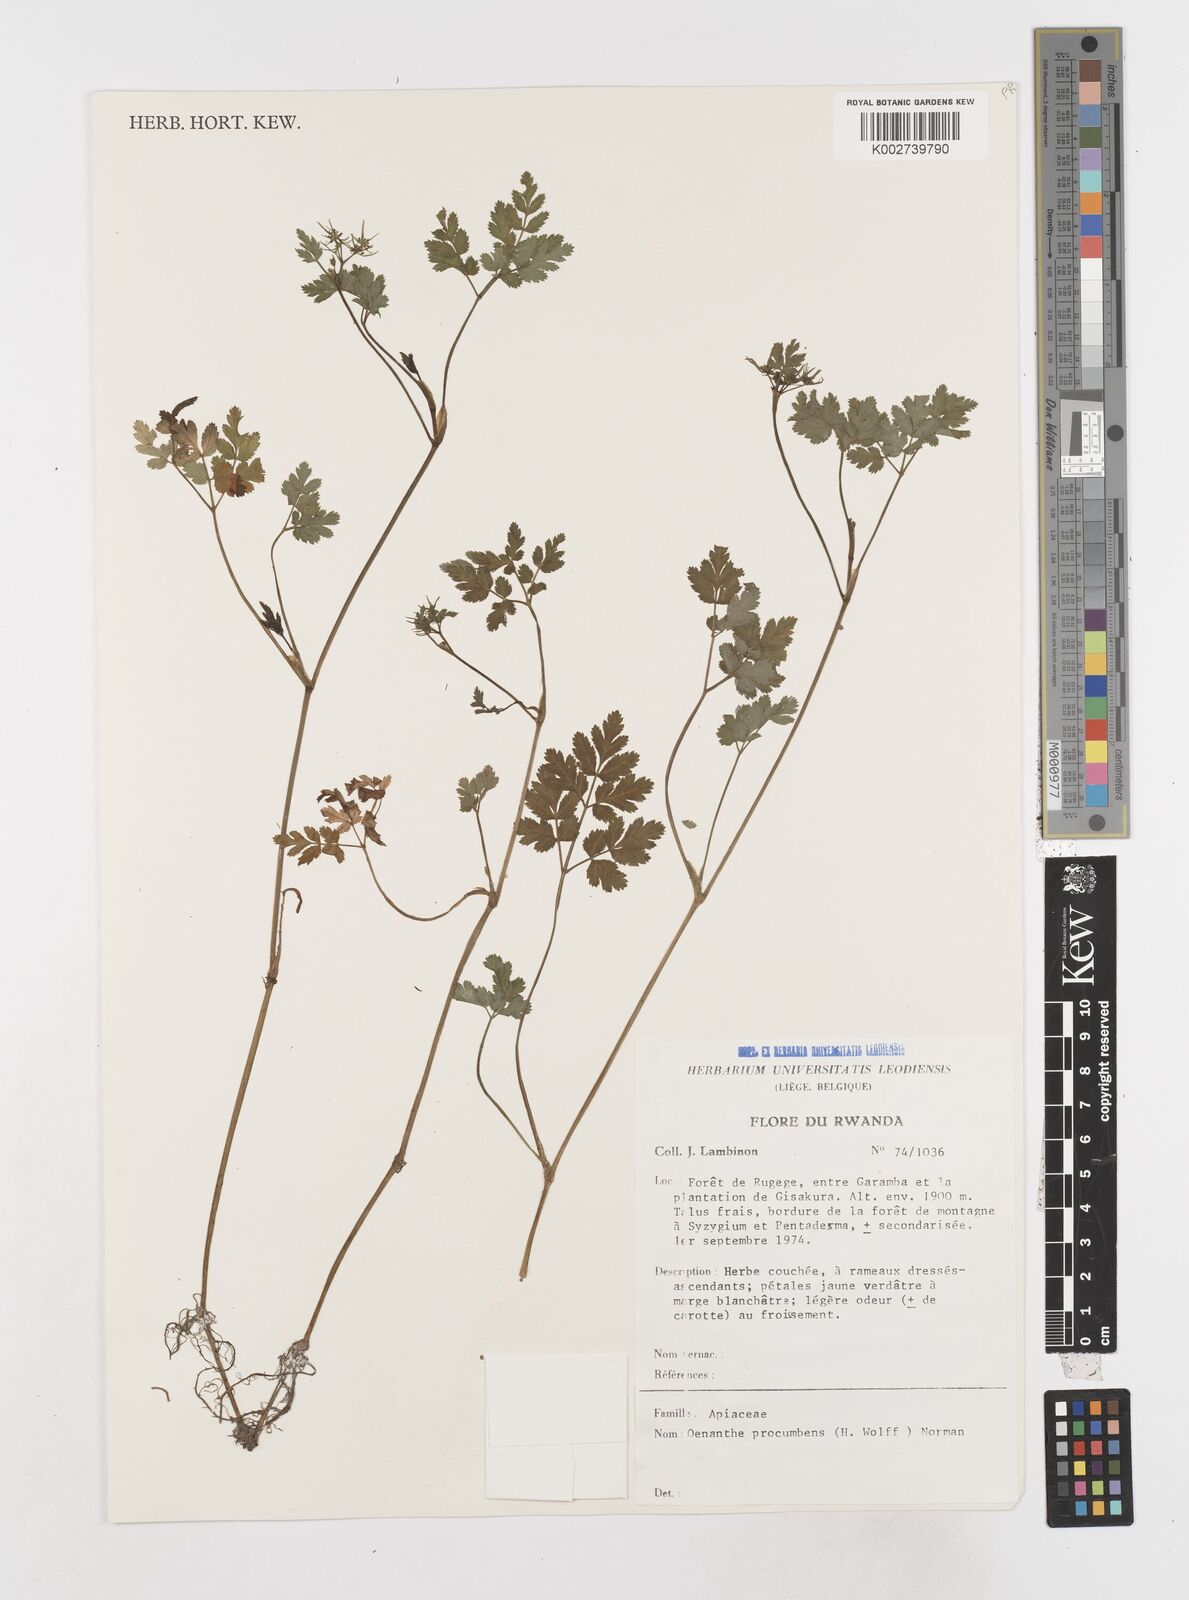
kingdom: Plantae
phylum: Tracheophyta
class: Magnoliopsida
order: Apiales
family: Apiaceae
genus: Oenanthe
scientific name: Oenanthe procumbens
